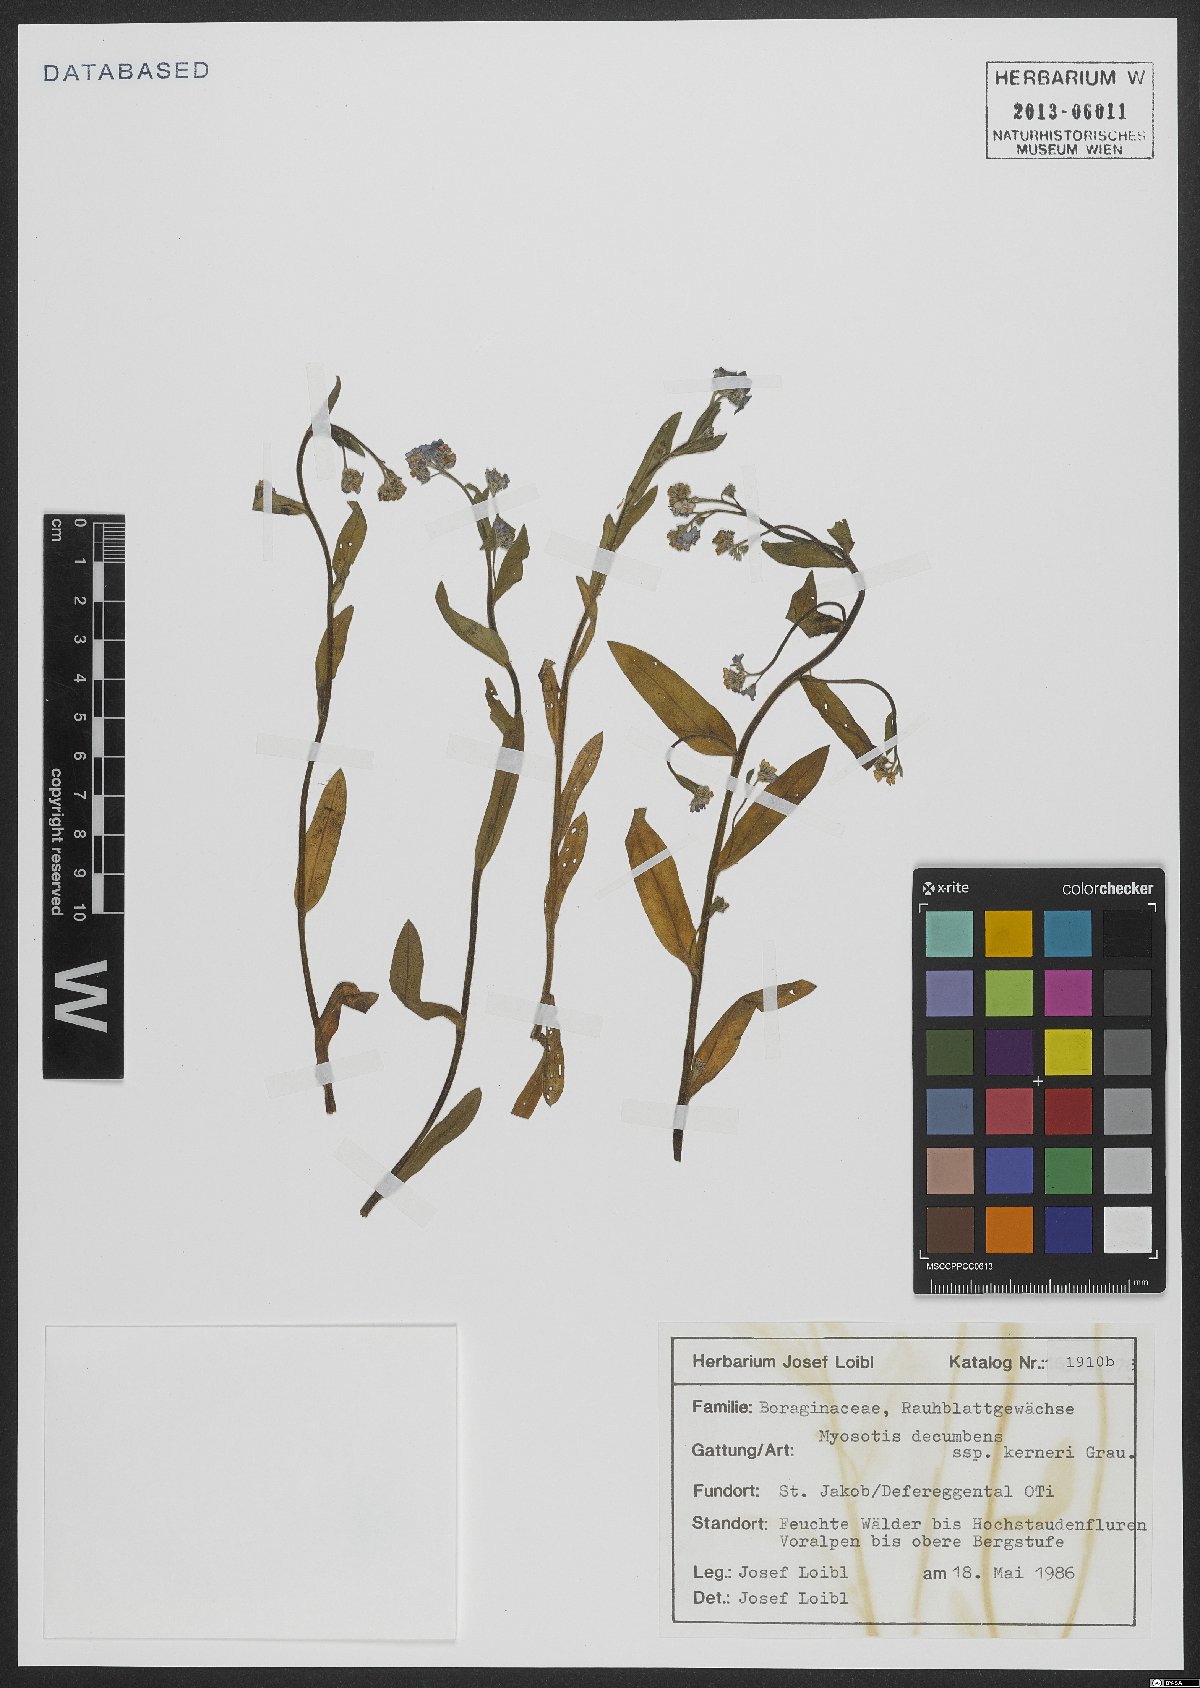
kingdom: Plantae
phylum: Tracheophyta
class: Magnoliopsida
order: Boraginales
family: Boraginaceae
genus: Myosotis
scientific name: Myosotis decumbens
